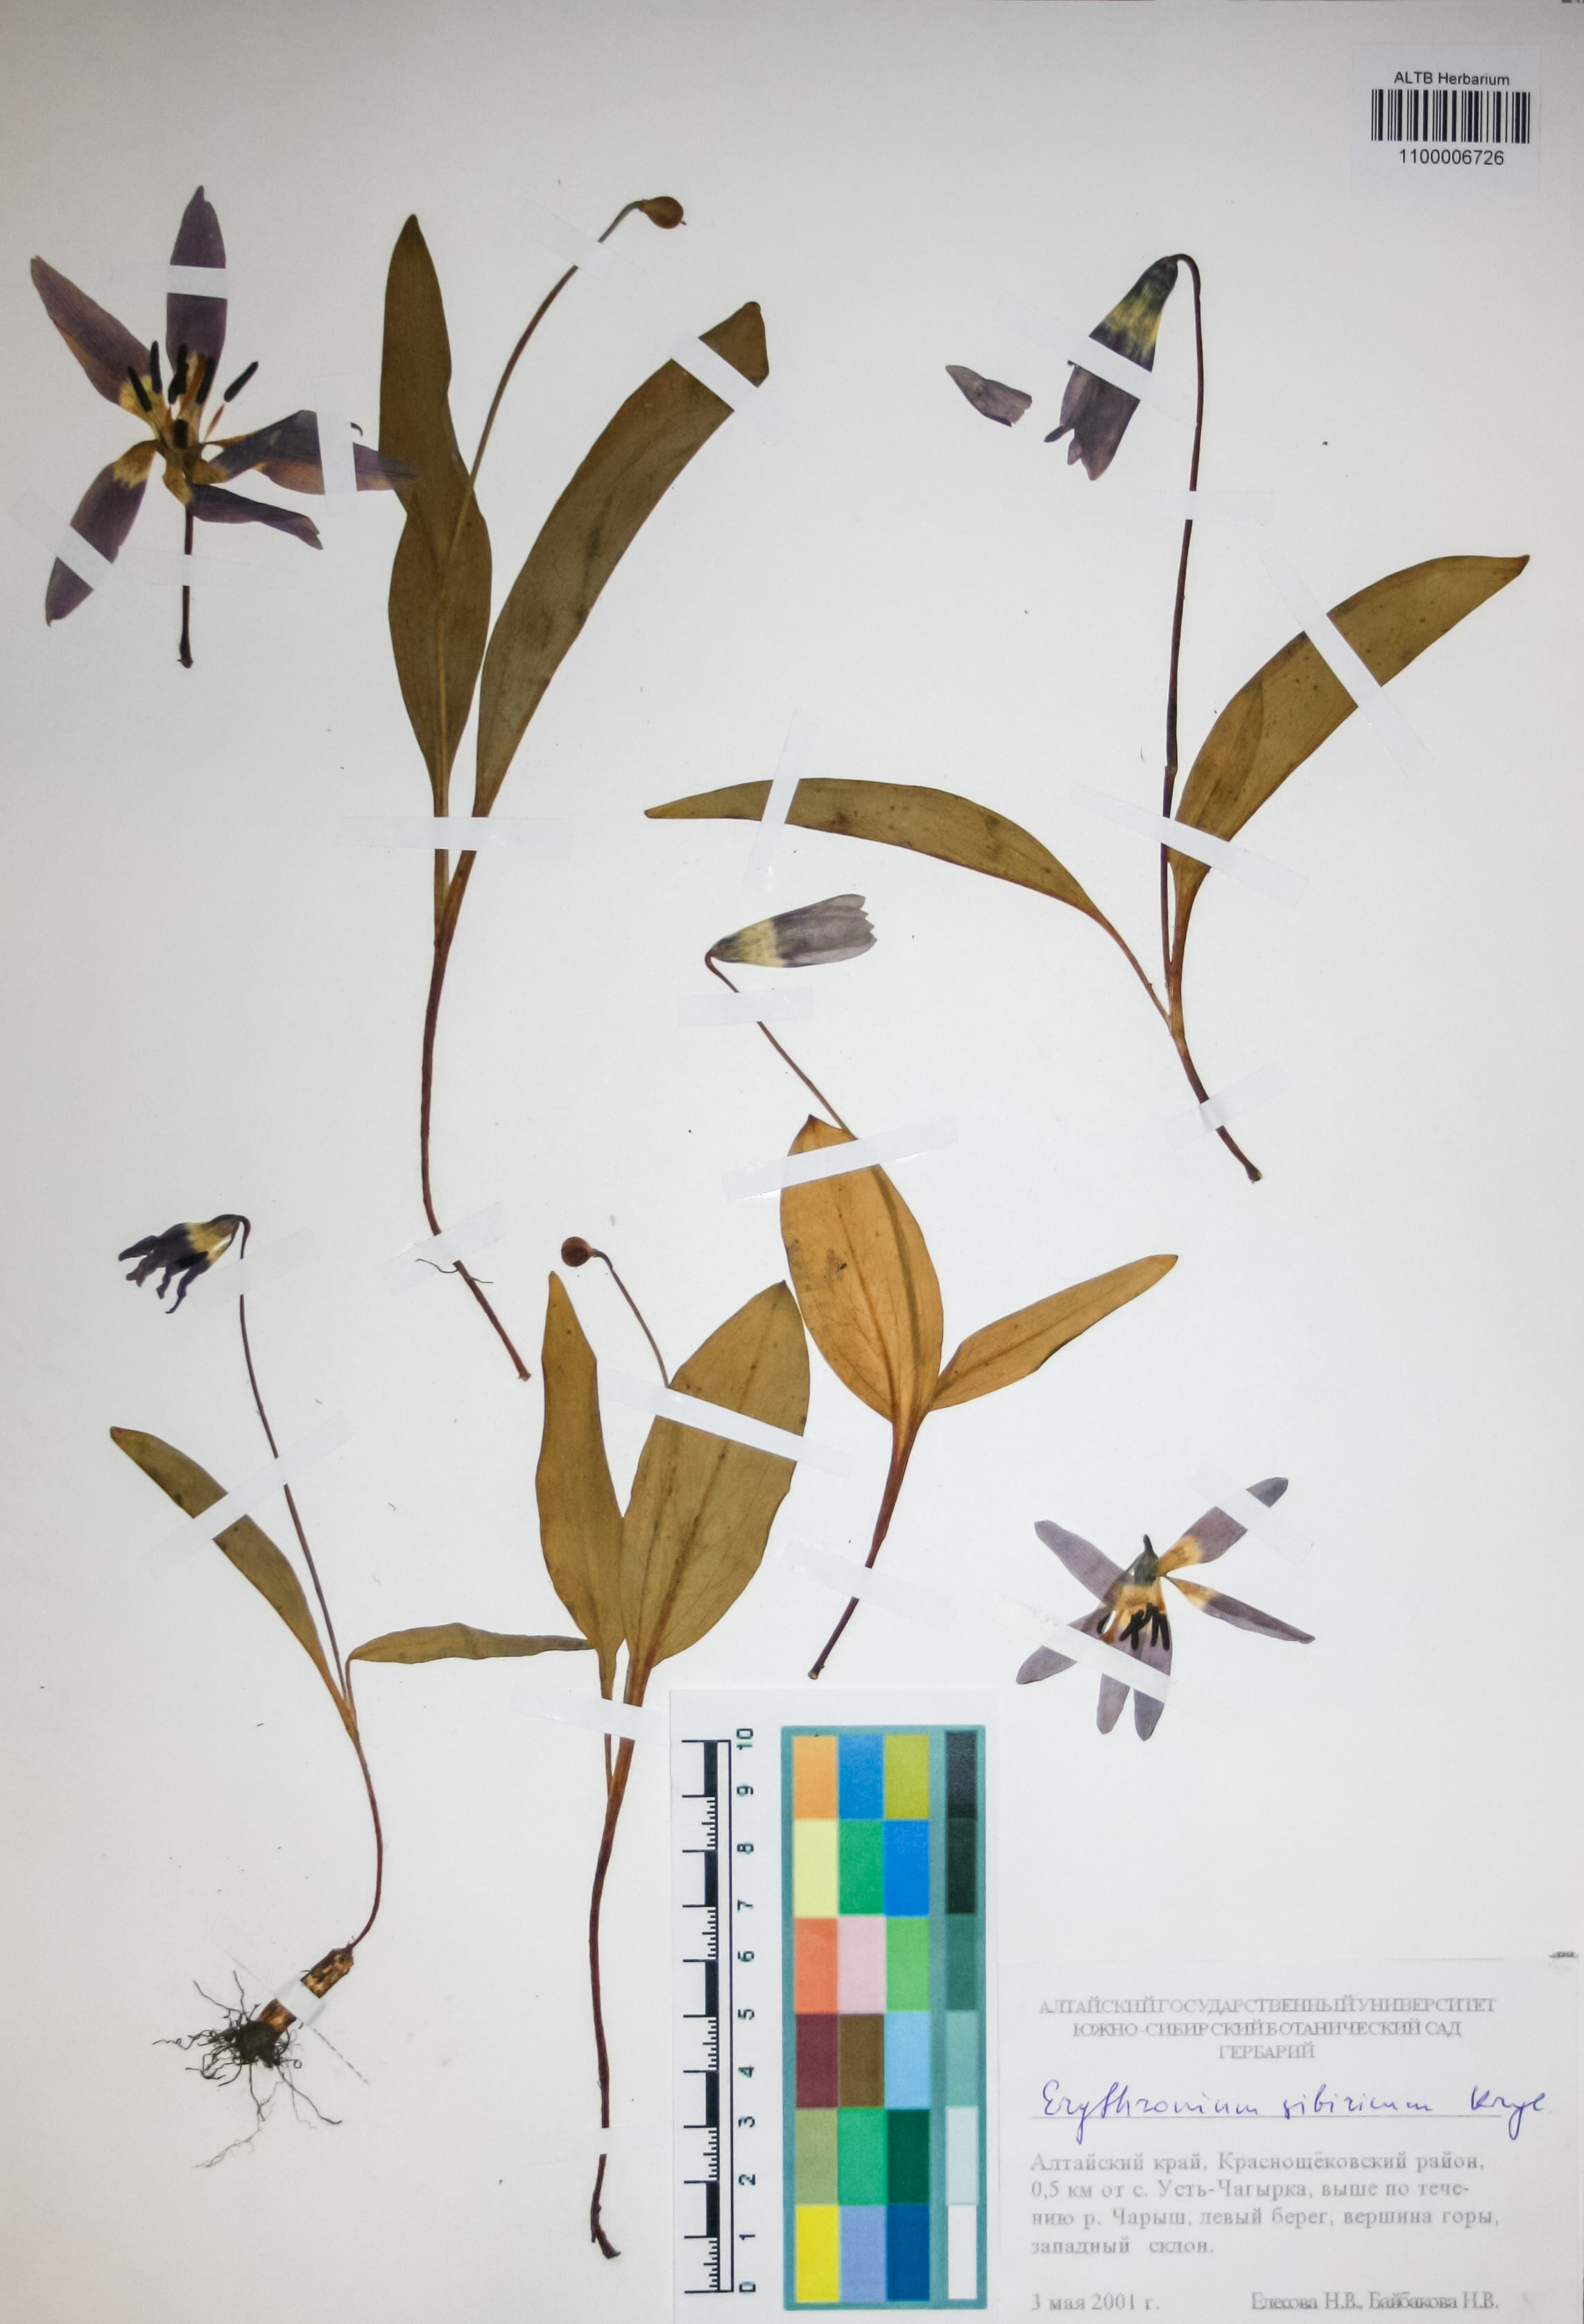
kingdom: Plantae
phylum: Tracheophyta
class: Liliopsida
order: Liliales
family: Liliaceae
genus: Erythronium
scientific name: Erythronium sibiricum
